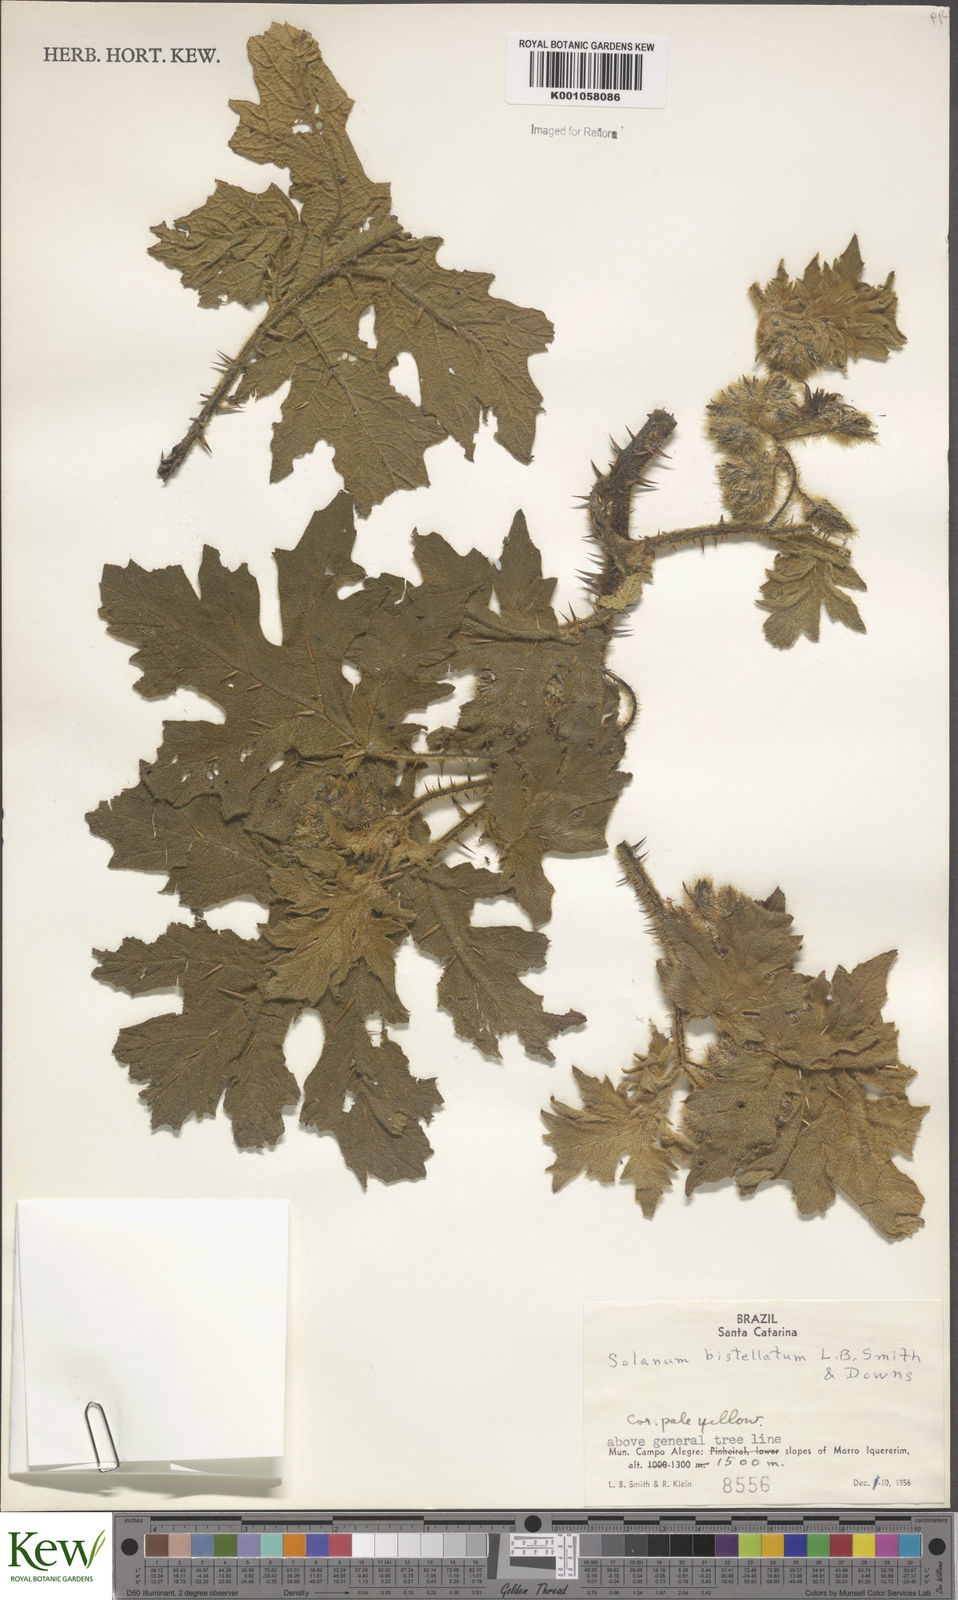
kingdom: Plantae
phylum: Tracheophyta
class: Magnoliopsida
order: Solanales
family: Solanaceae
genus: Solanum
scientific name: Solanum bistellatum
